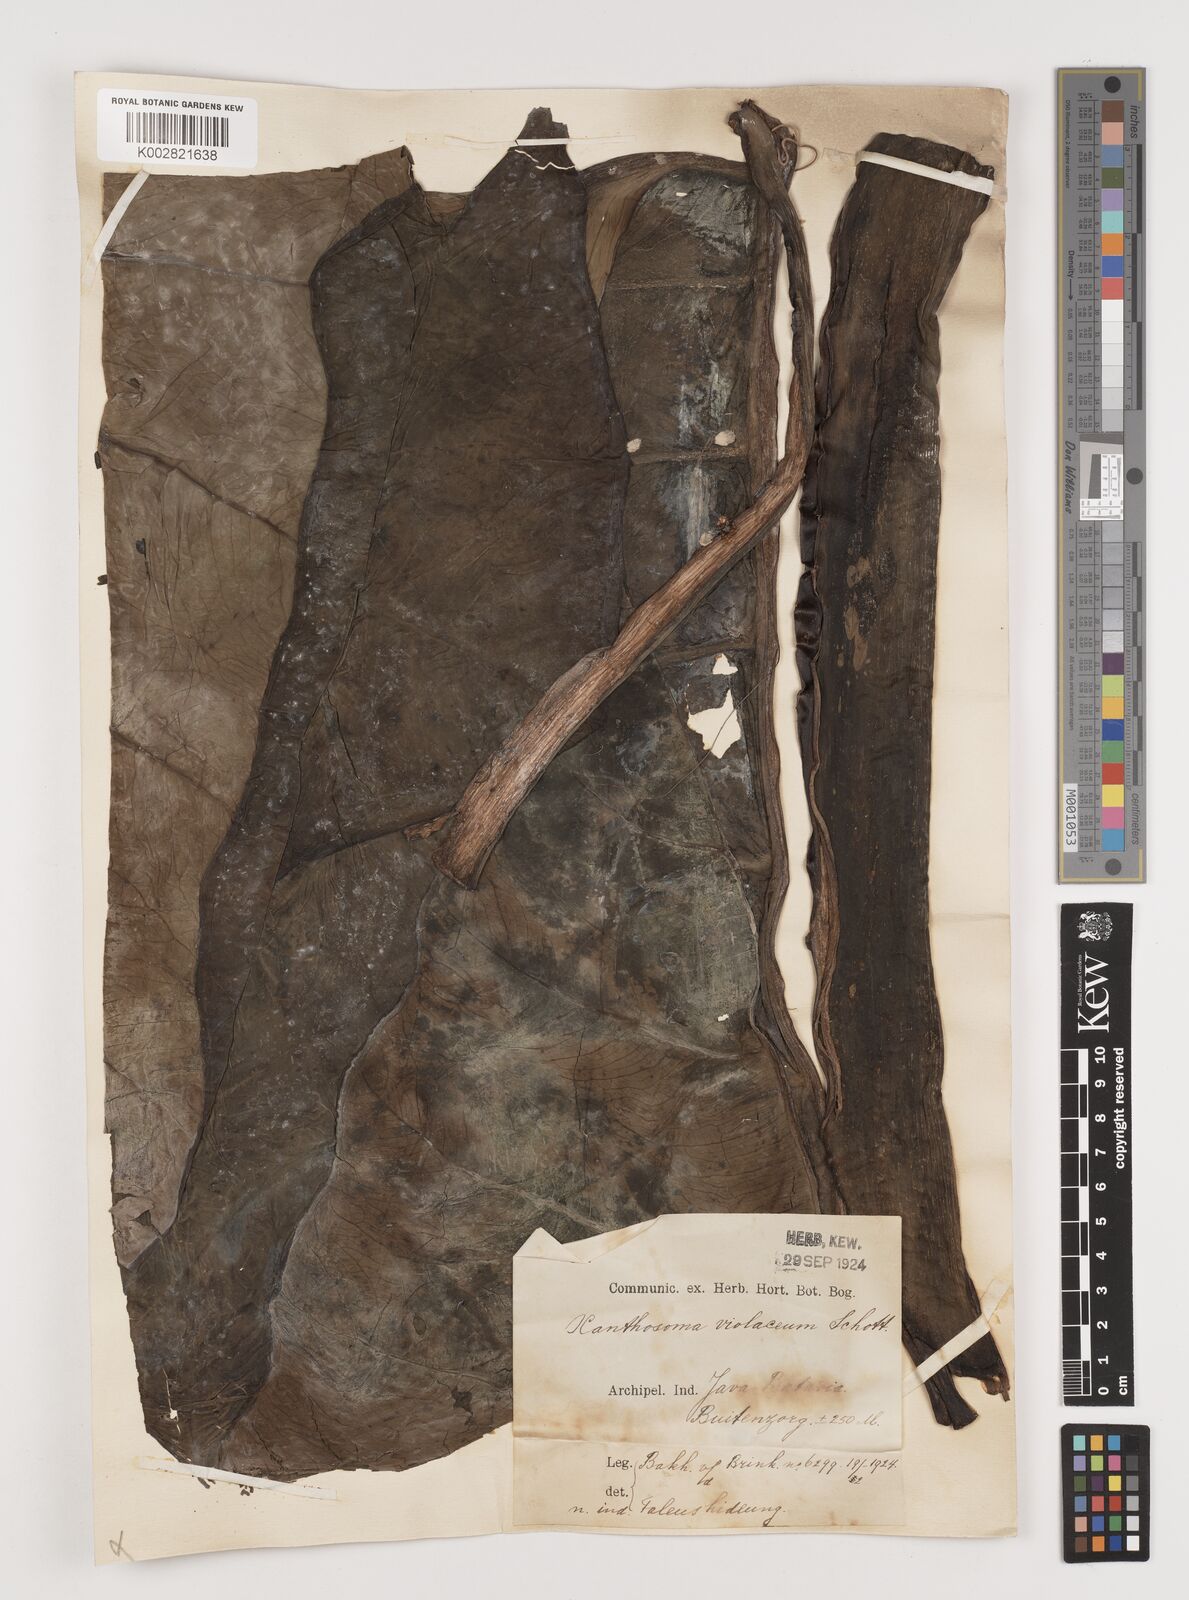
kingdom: Plantae
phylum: Tracheophyta
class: Liliopsida
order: Alismatales
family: Araceae
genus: Xanthosoma
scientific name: Xanthosoma sagittifolium
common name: Arrowleaf elephant's ear
